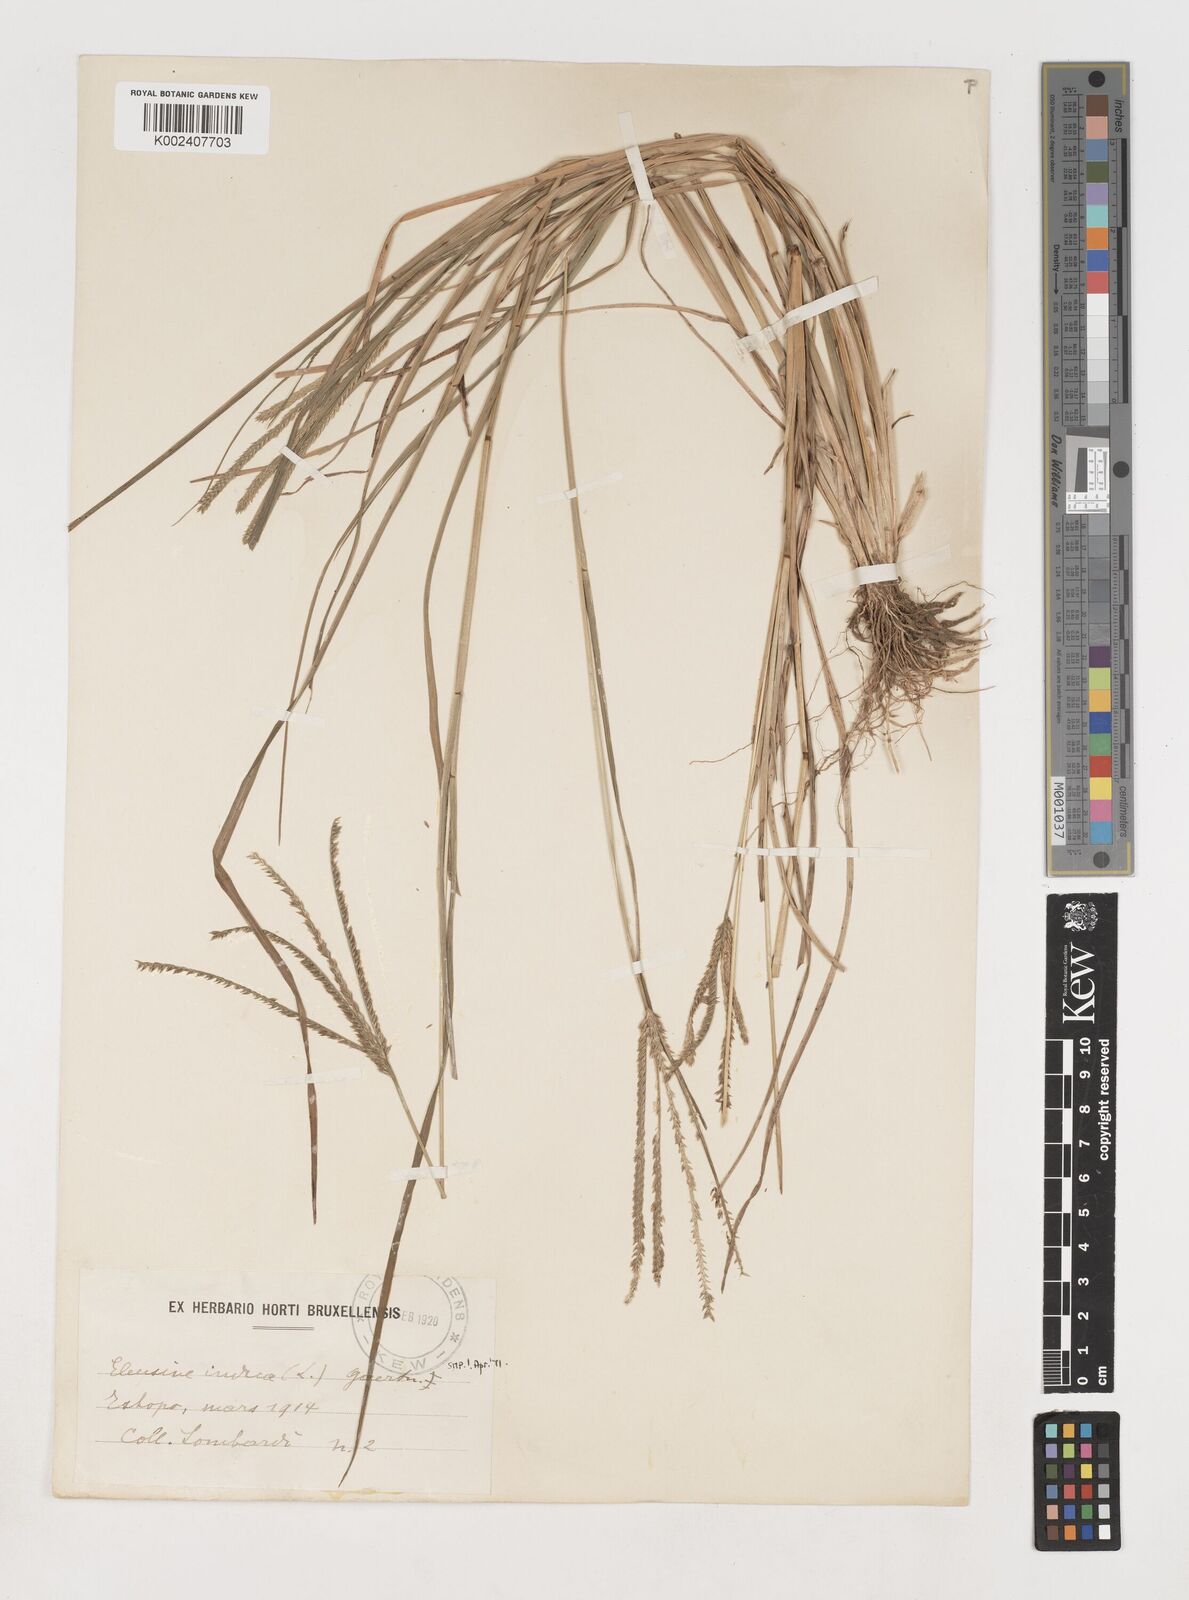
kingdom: Plantae
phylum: Tracheophyta
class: Liliopsida
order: Poales
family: Poaceae
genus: Eleusine
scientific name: Eleusine indica
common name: Yard-grass
